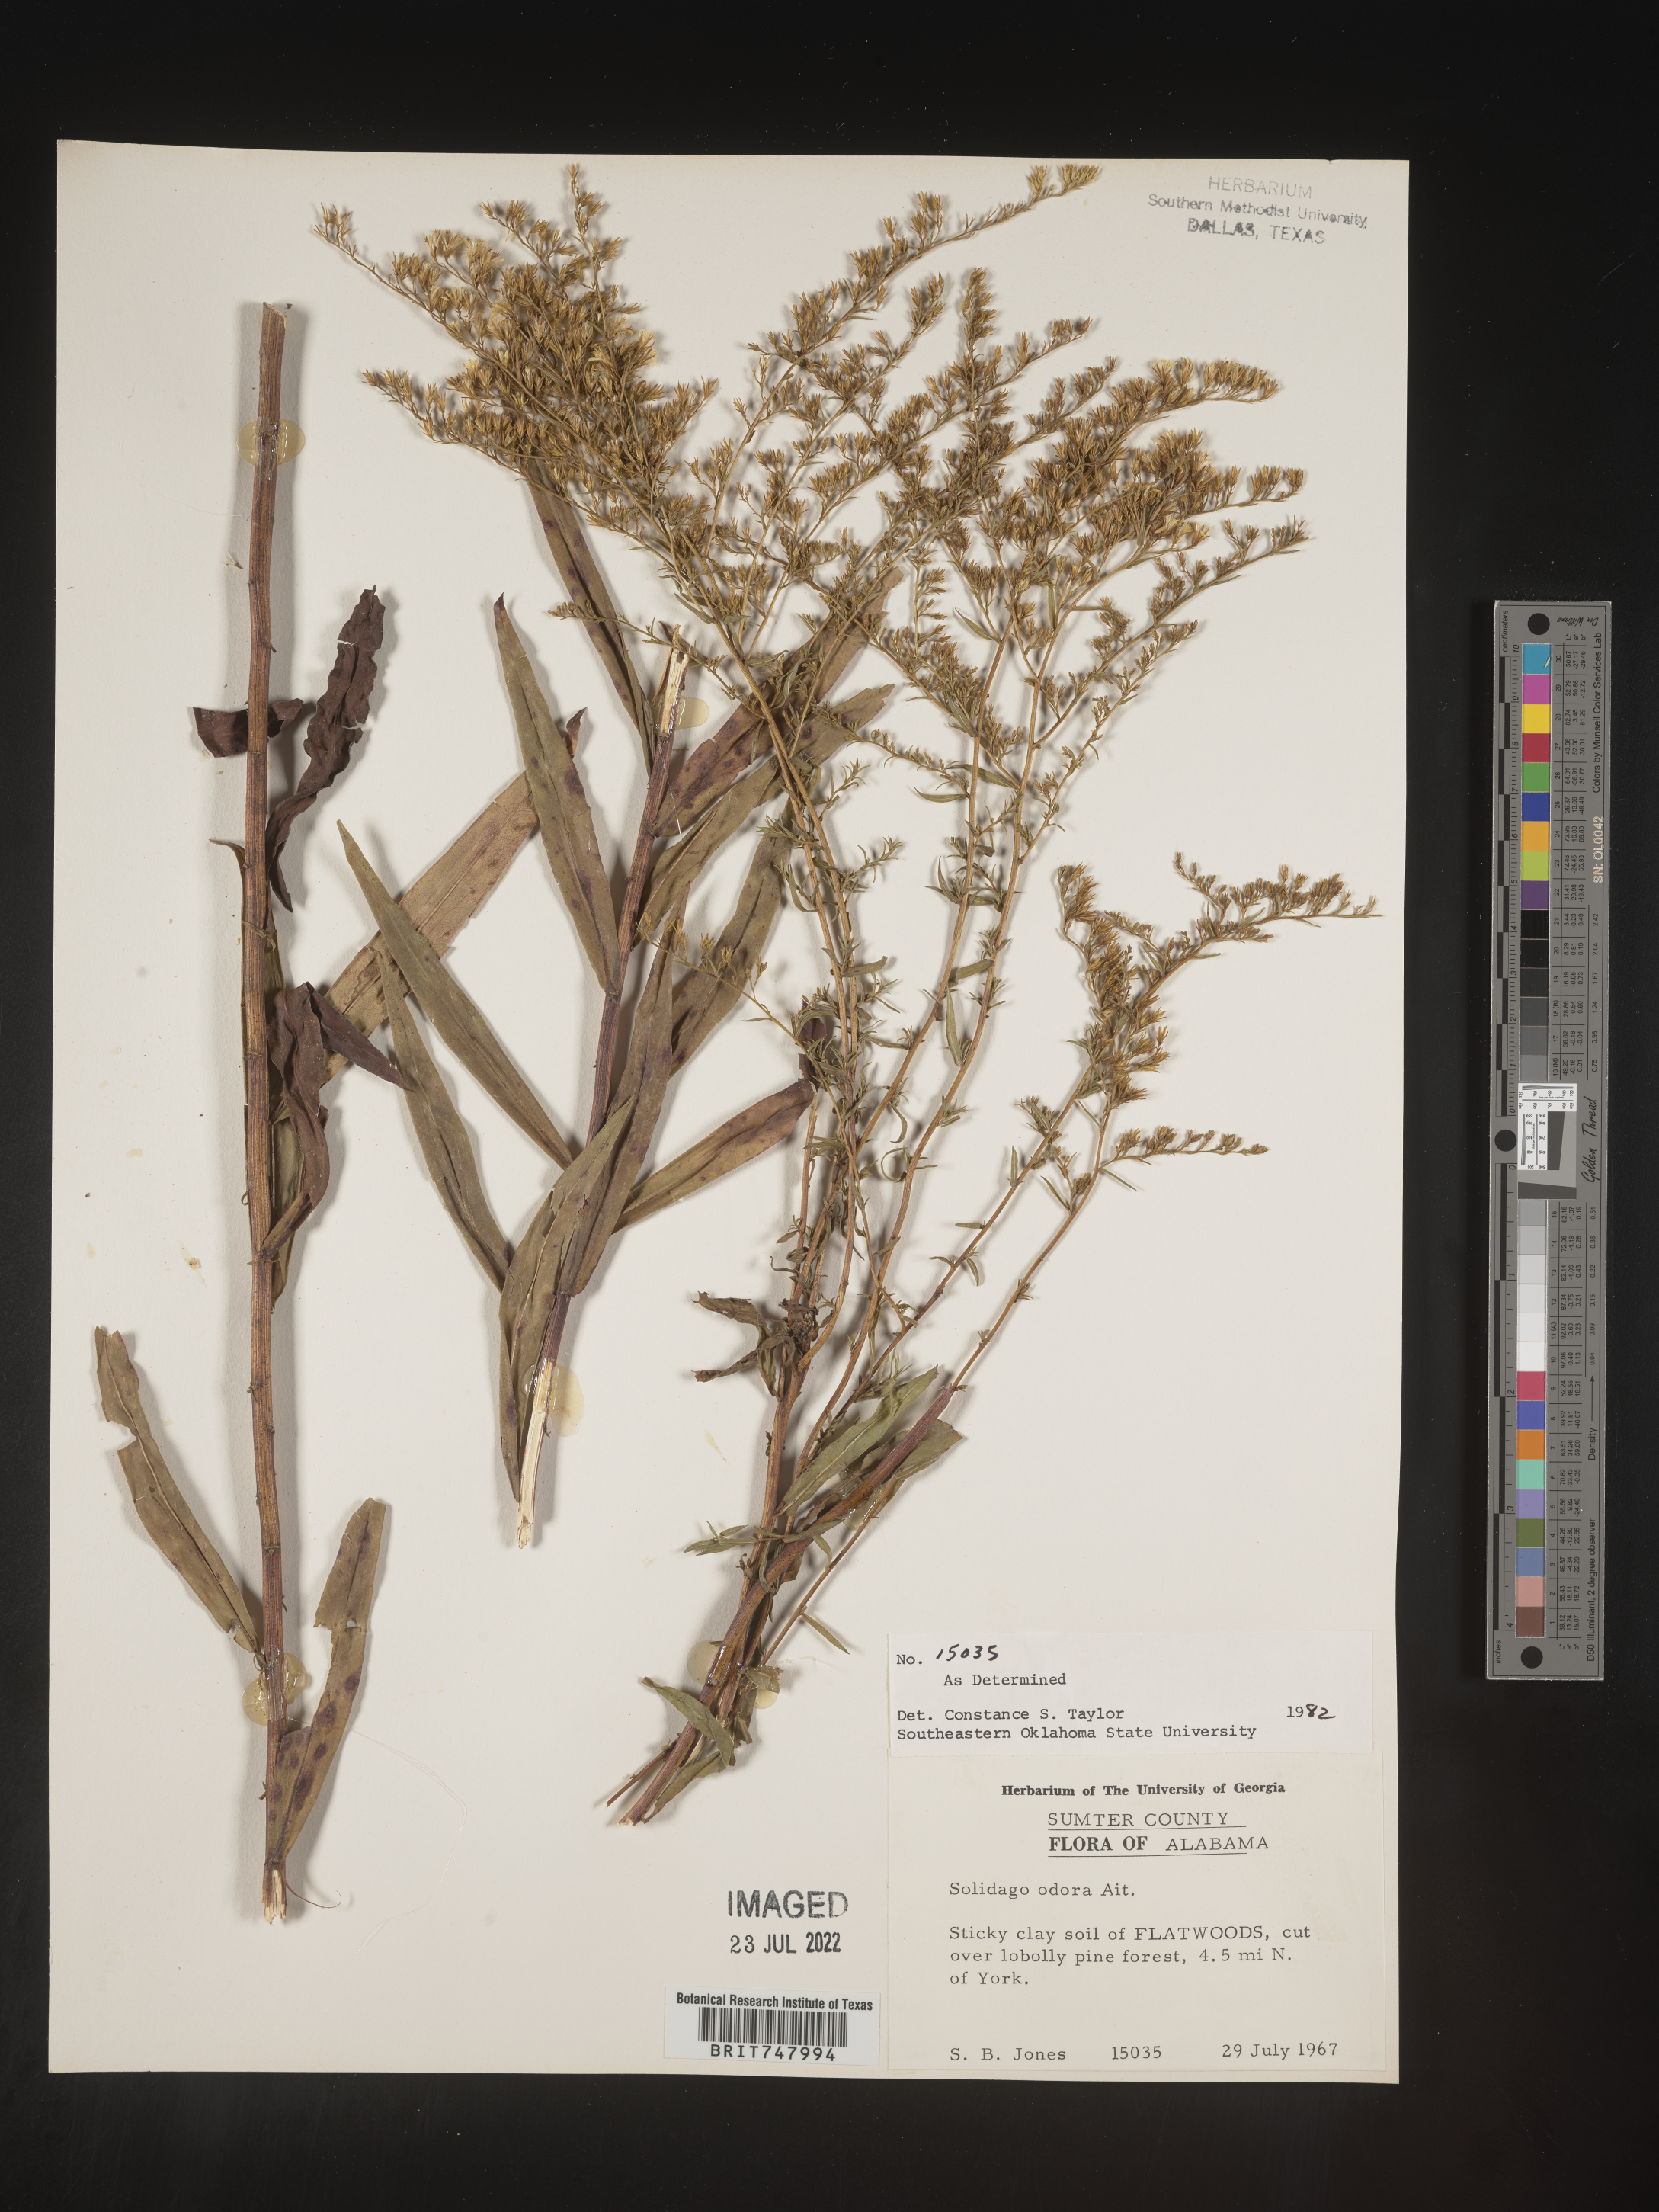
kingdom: Plantae
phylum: Tracheophyta
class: Magnoliopsida
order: Asterales
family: Asteraceae
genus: Solidago
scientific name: Solidago odora
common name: Anise-scented goldenrod
